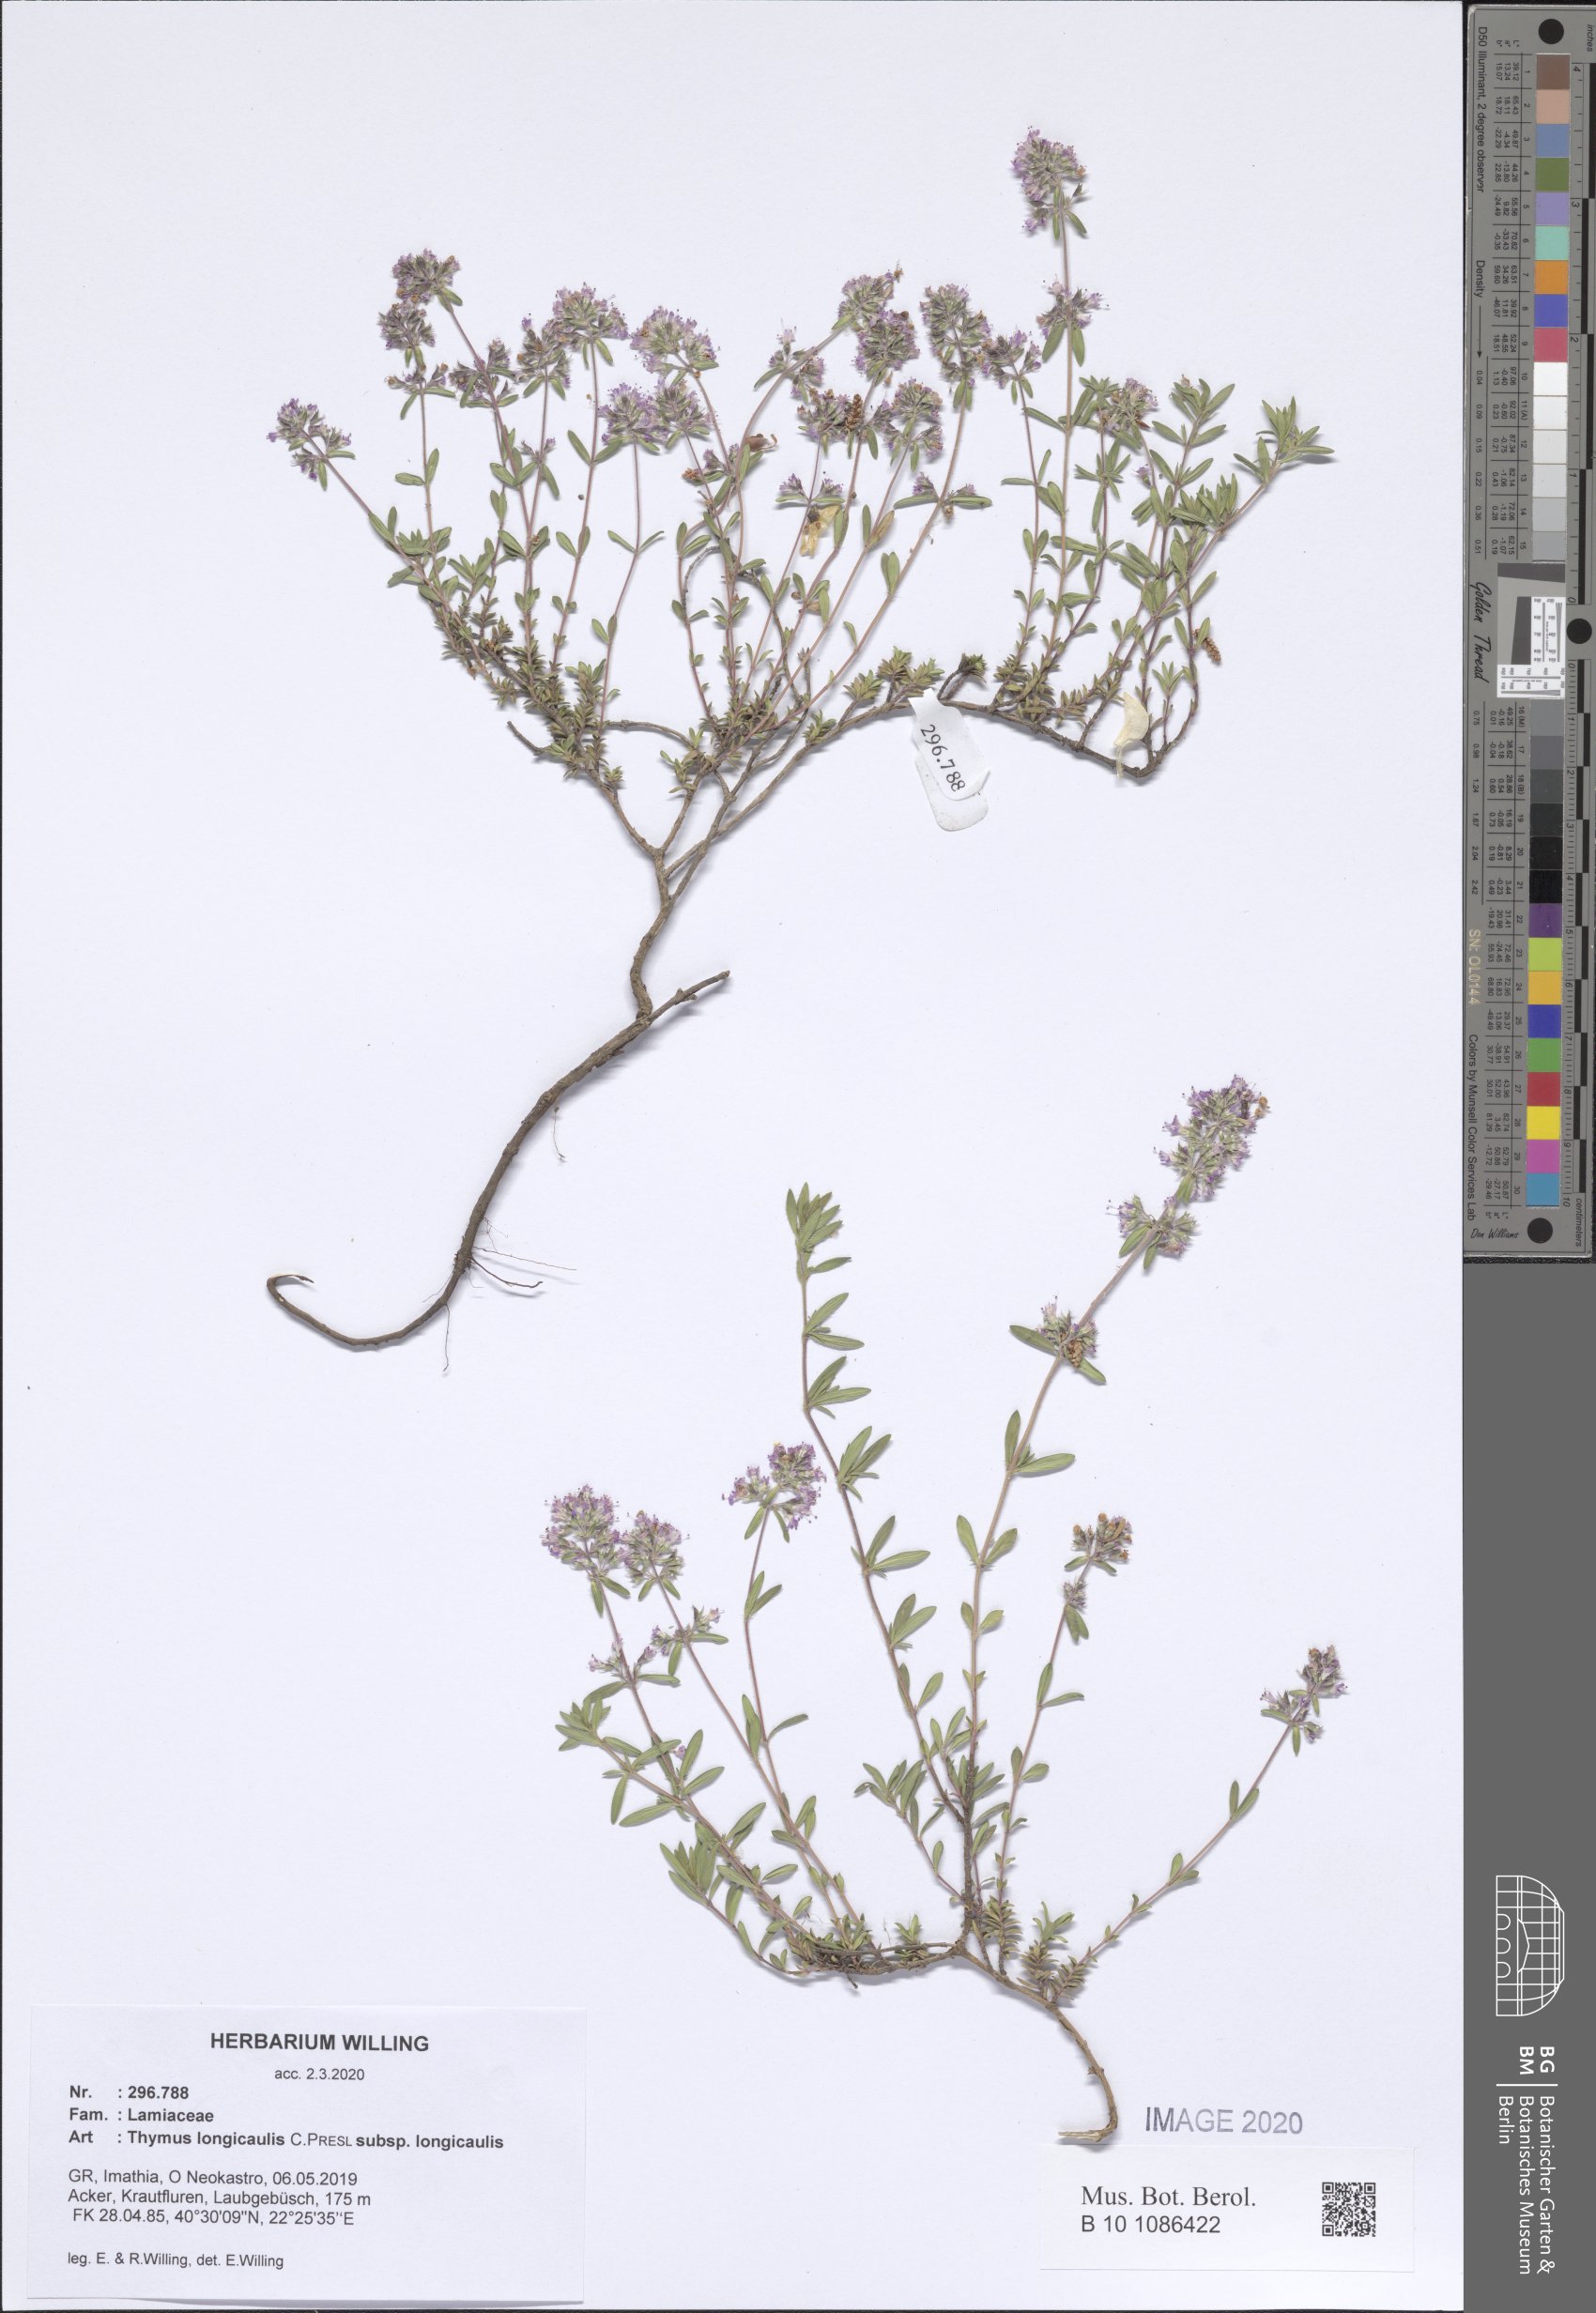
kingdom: Plantae
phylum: Tracheophyta
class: Magnoliopsida
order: Lamiales
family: Lamiaceae
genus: Thymus
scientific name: Thymus longicaulis
